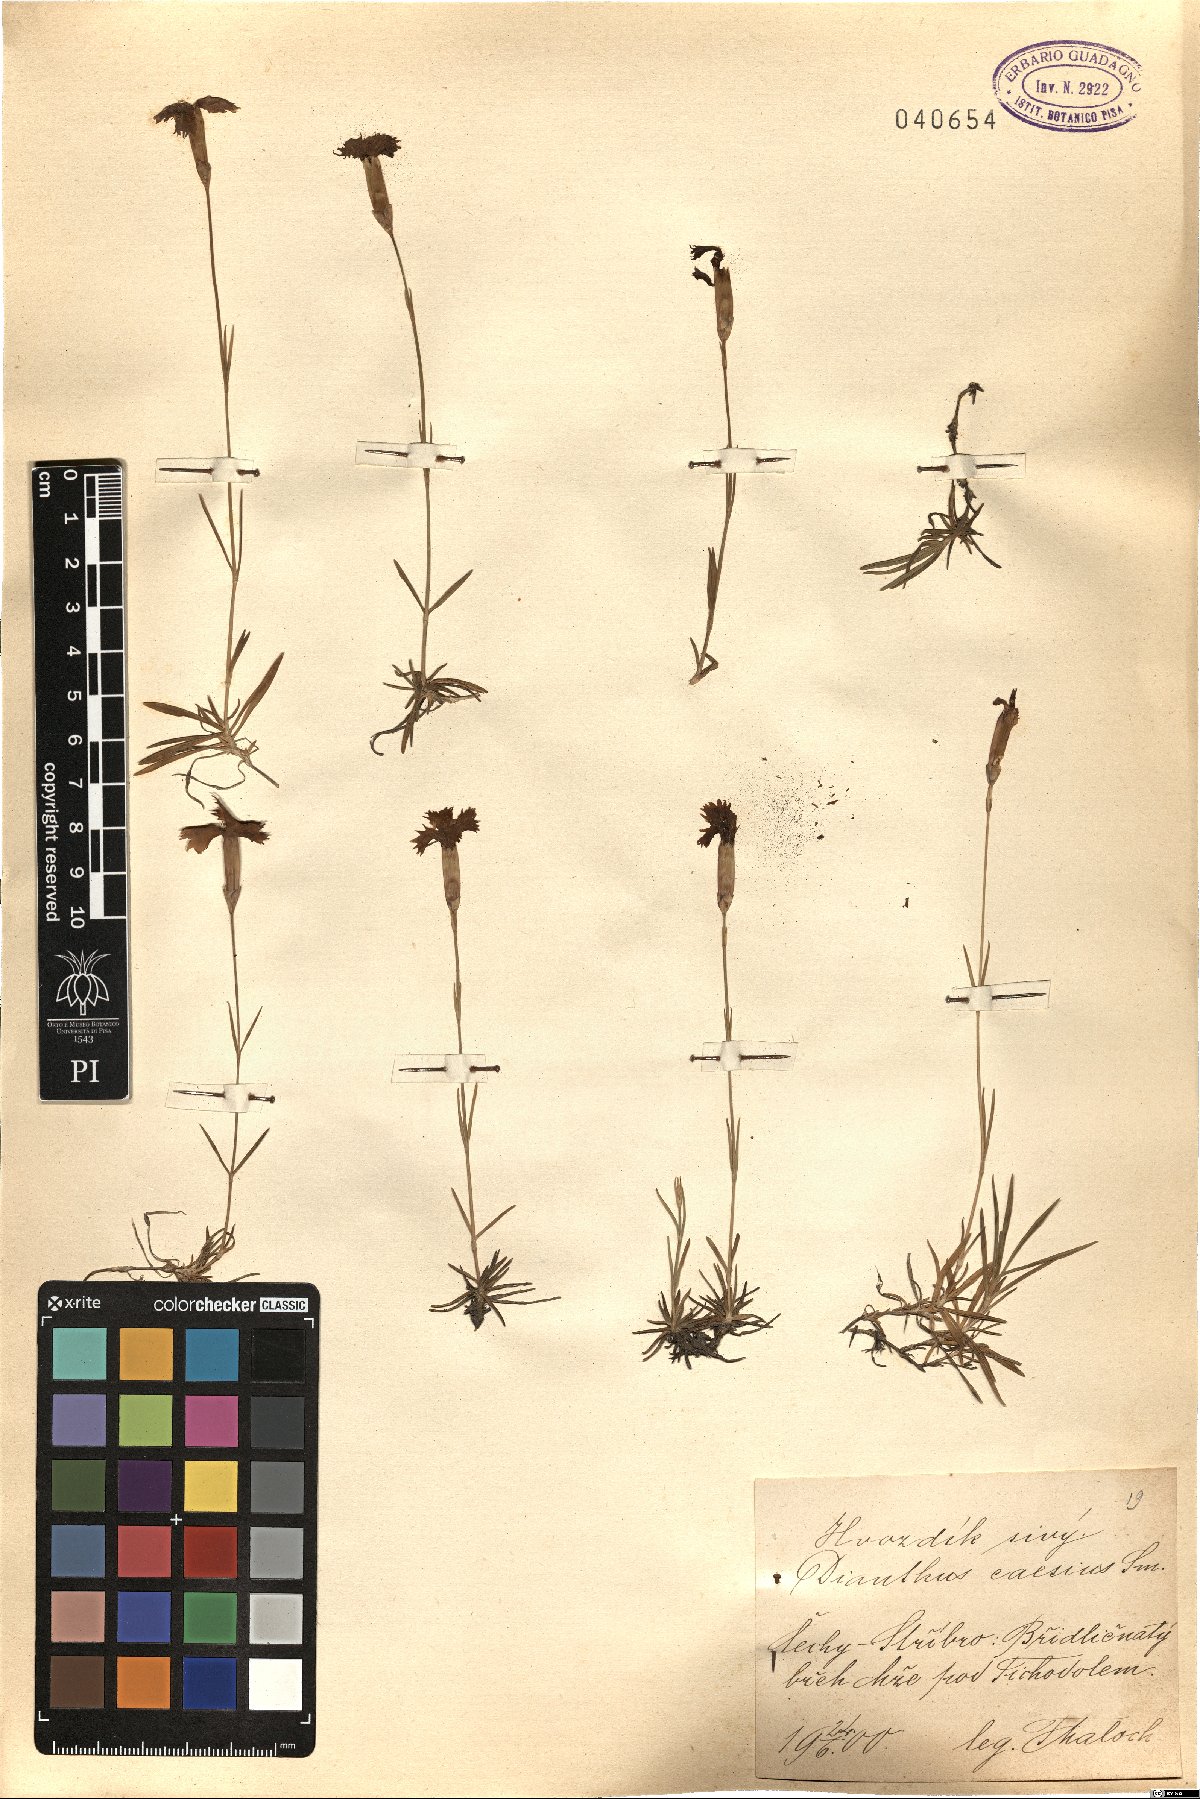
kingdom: Plantae
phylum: Tracheophyta
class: Magnoliopsida
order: Caryophyllales
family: Caryophyllaceae
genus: Dianthus
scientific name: Dianthus gratianopolitanus
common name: Cheddar pink
